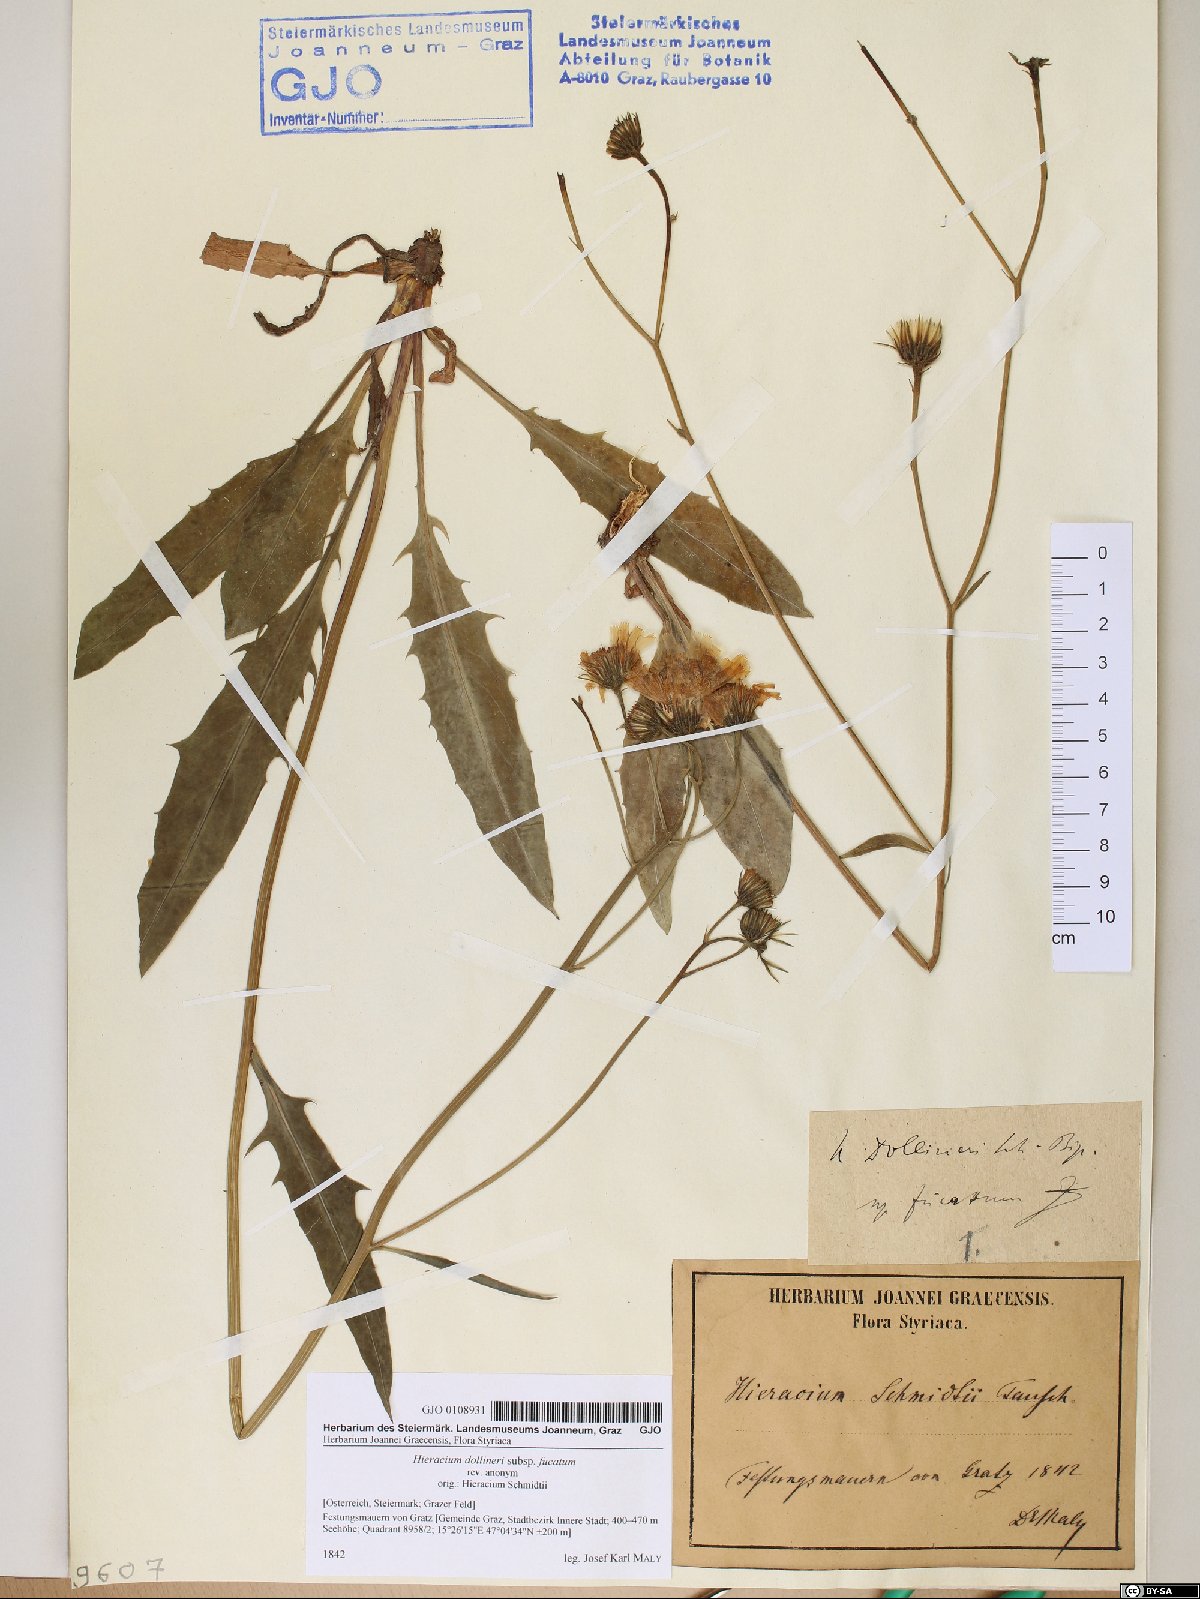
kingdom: Plantae
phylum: Tracheophyta
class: Magnoliopsida
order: Asterales
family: Asteraceae
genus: Hieracium
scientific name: Hieracium dollineri
